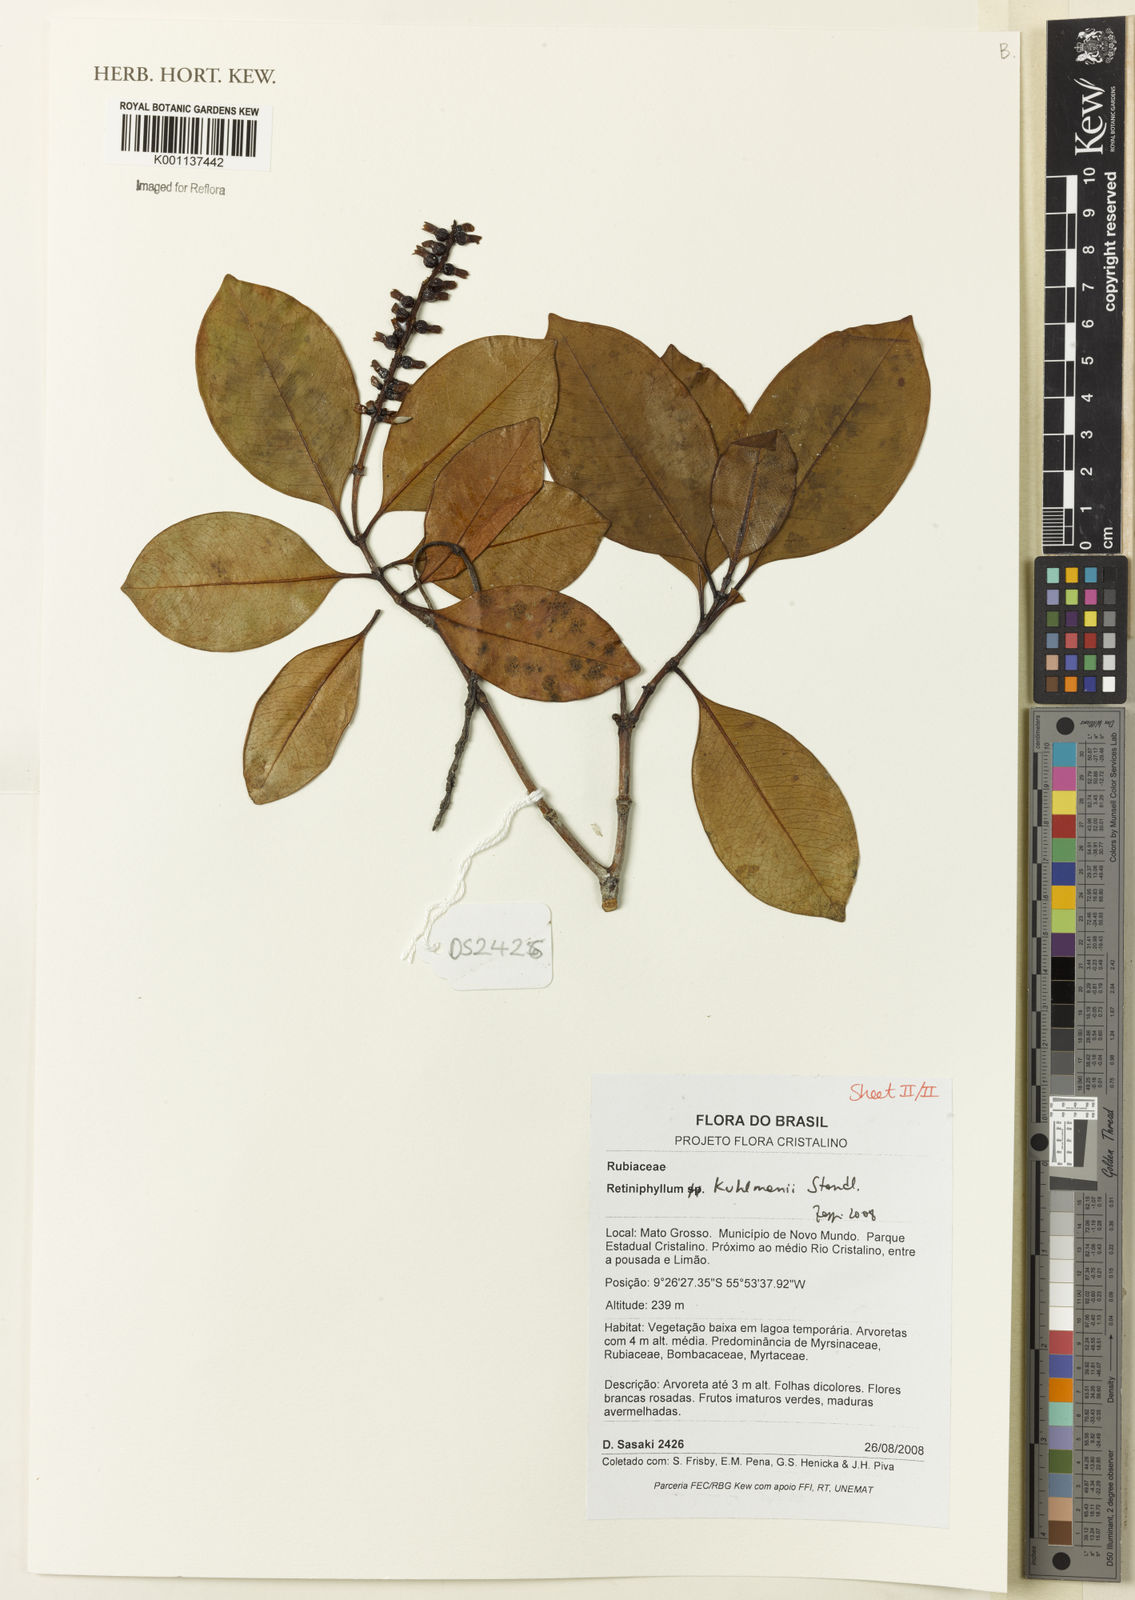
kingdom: Plantae
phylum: Tracheophyta
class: Magnoliopsida
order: Gentianales
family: Rubiaceae
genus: Retiniphyllum
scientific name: Retiniphyllum kuhlmannii
